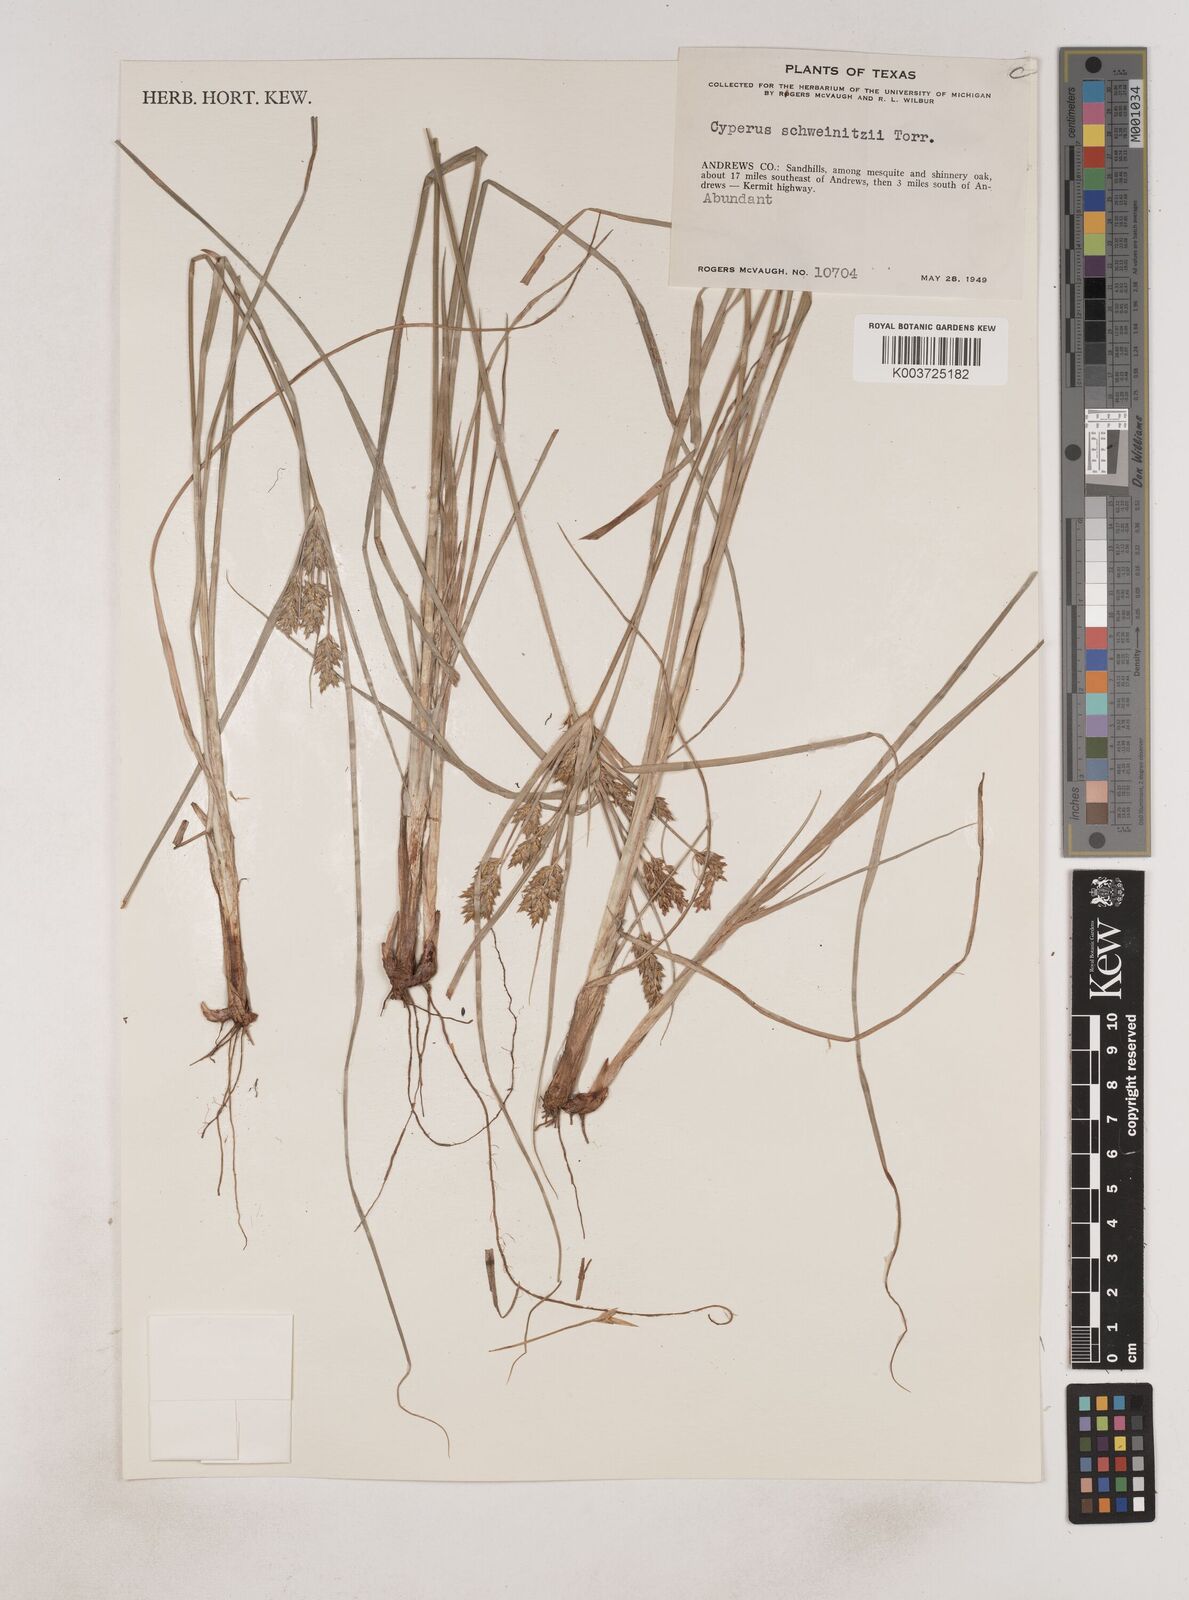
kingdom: Plantae
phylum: Tracheophyta
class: Liliopsida
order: Poales
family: Cyperaceae
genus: Cyperus
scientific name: Cyperus schweinitzii
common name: Schweinitz's cyperus
